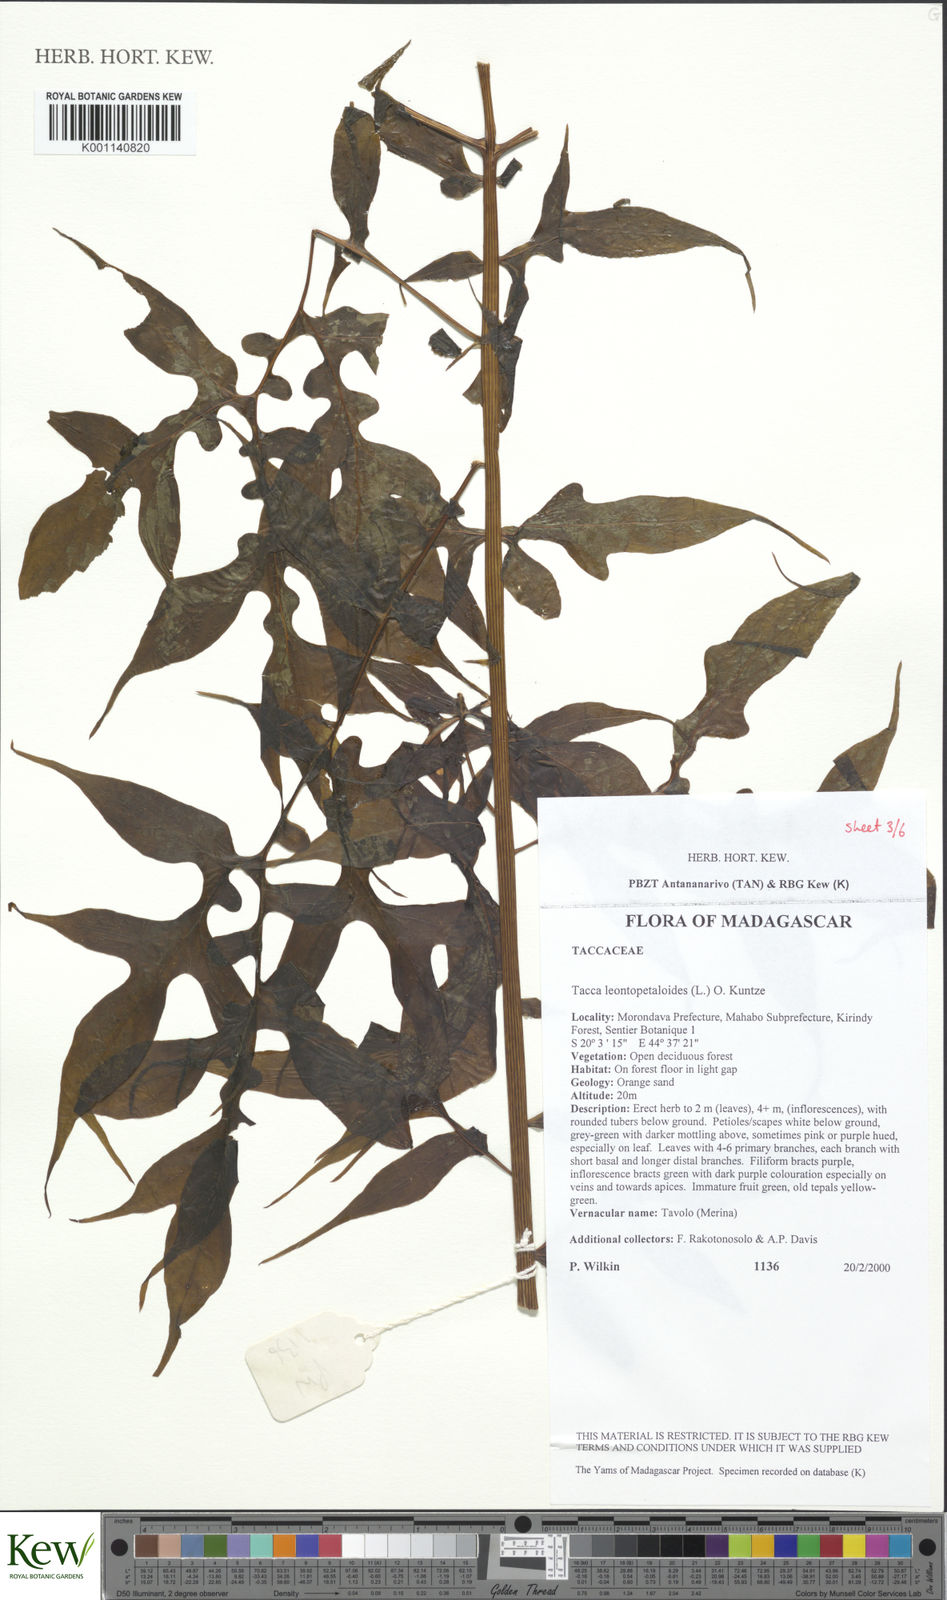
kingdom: Plantae
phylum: Tracheophyta
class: Liliopsida
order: Dioscoreales
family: Dioscoreaceae
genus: Tacca
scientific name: Tacca leontopetaloides
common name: Arrowroot
